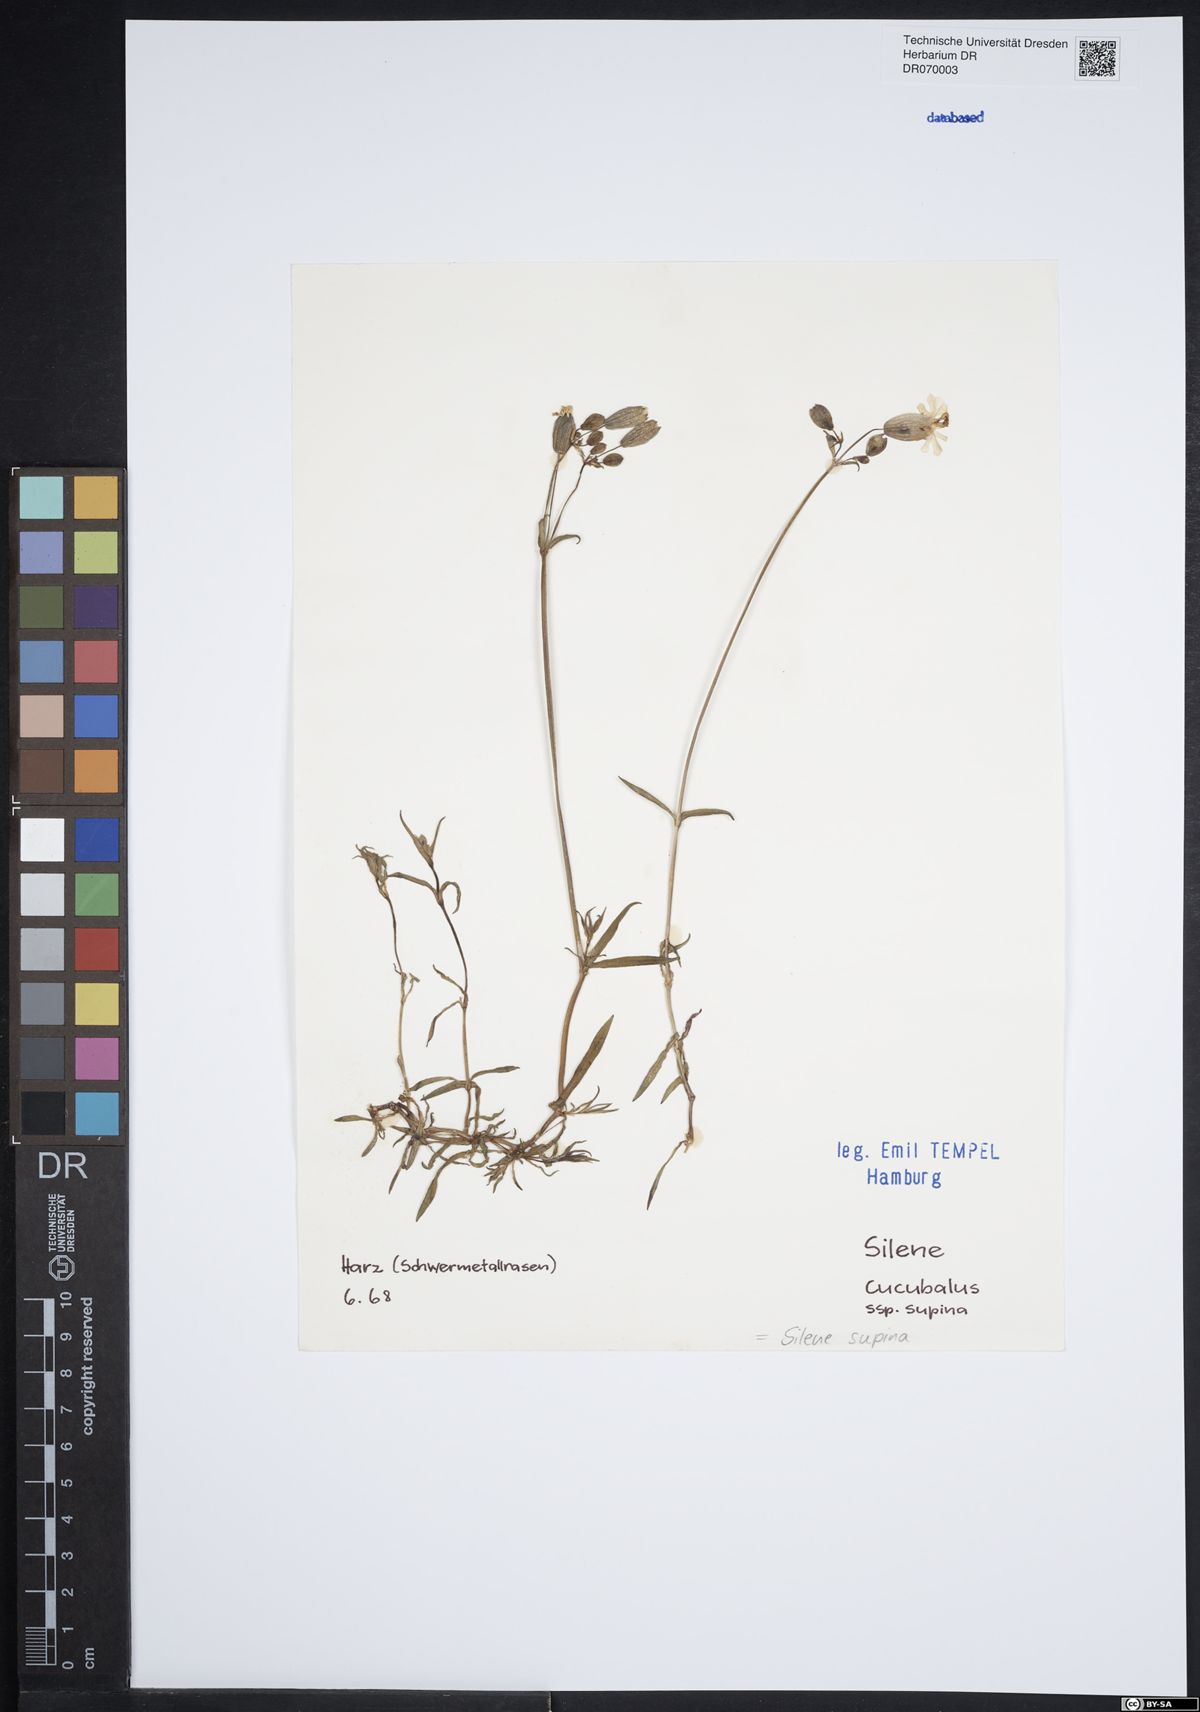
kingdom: Plantae
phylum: Tracheophyta
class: Magnoliopsida
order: Caryophyllales
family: Caryophyllaceae
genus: Silene
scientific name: Silene supina
